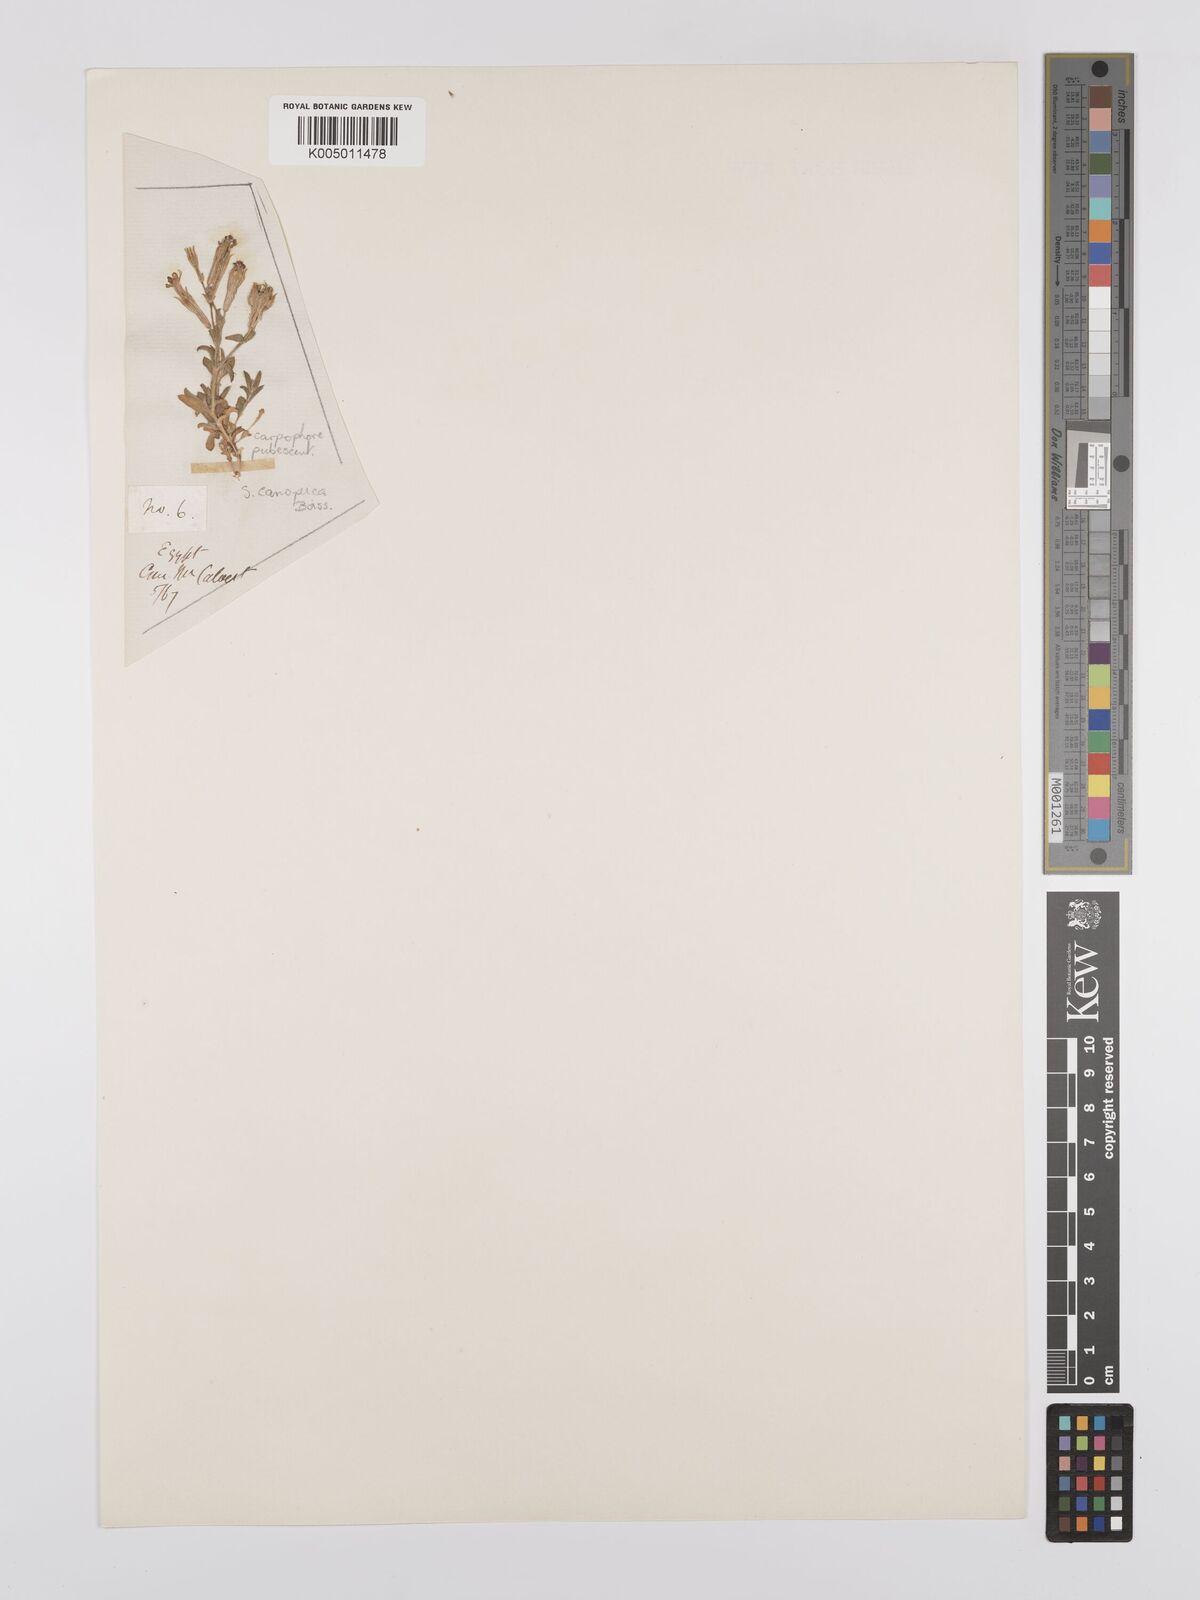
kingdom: Plantae
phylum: Tracheophyta
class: Magnoliopsida
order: Caryophyllales
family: Caryophyllaceae
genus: Silene
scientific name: Silene biappendiculata
